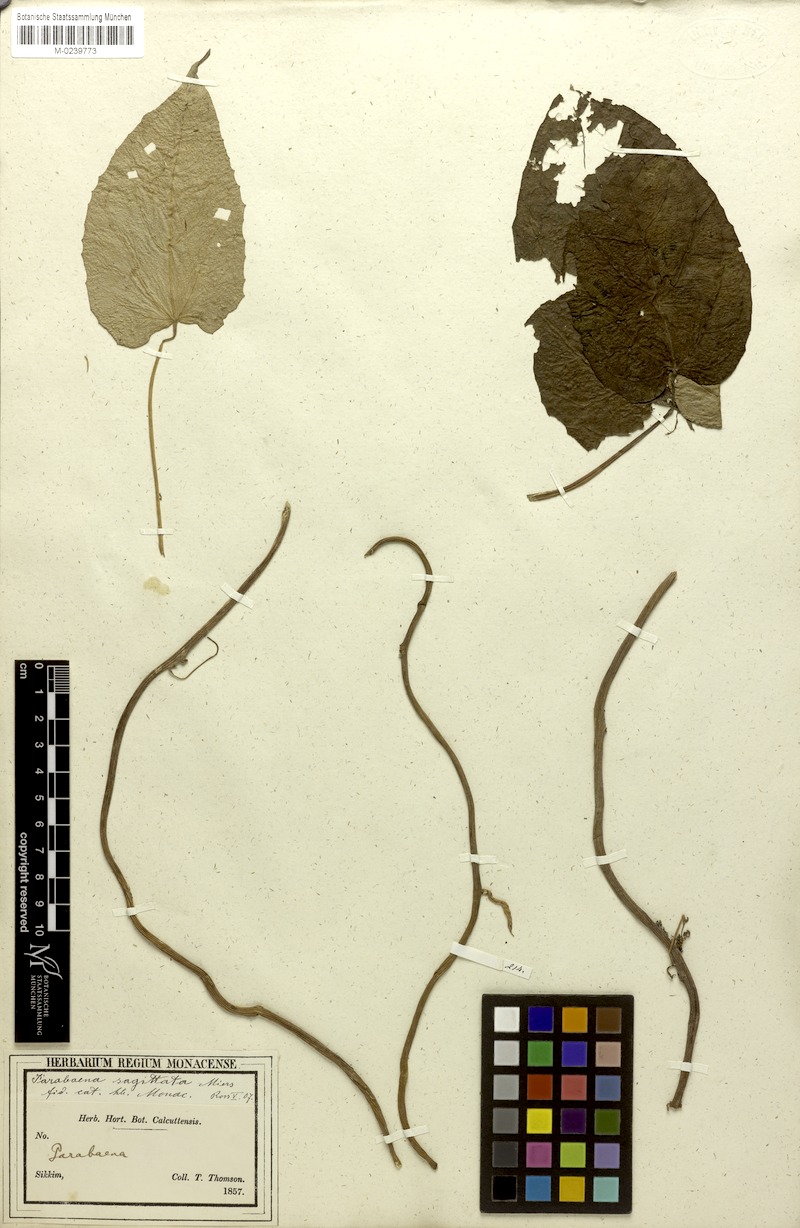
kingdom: Plantae
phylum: Tracheophyta
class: Magnoliopsida
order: Ranunculales
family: Menispermaceae
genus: Parabaena
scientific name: Parabaena sagittata
